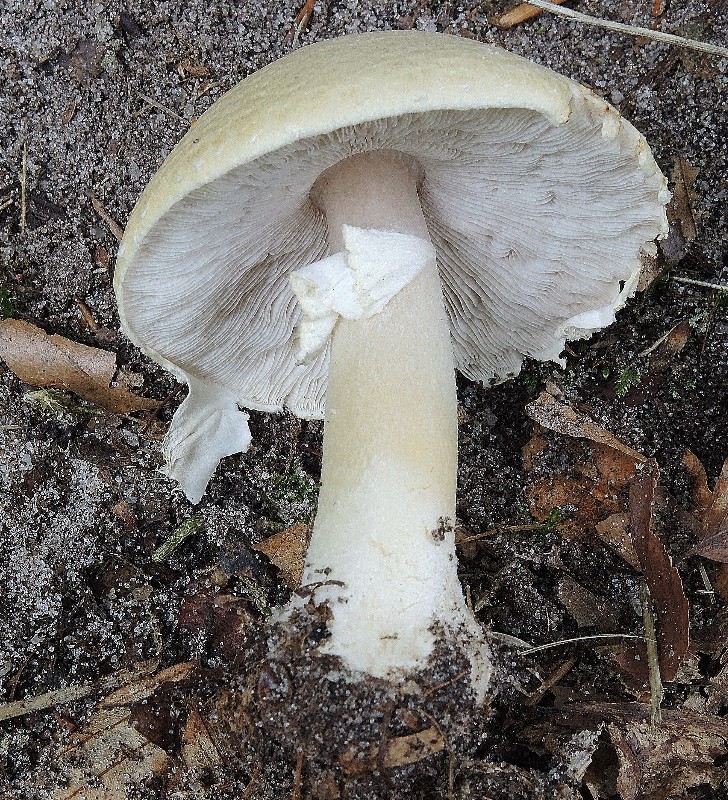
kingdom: Fungi
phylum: Basidiomycota
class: Agaricomycetes
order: Agaricales
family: Agaricaceae
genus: Agaricus
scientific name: Agaricus sylvicola
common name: gulhvid champignon
